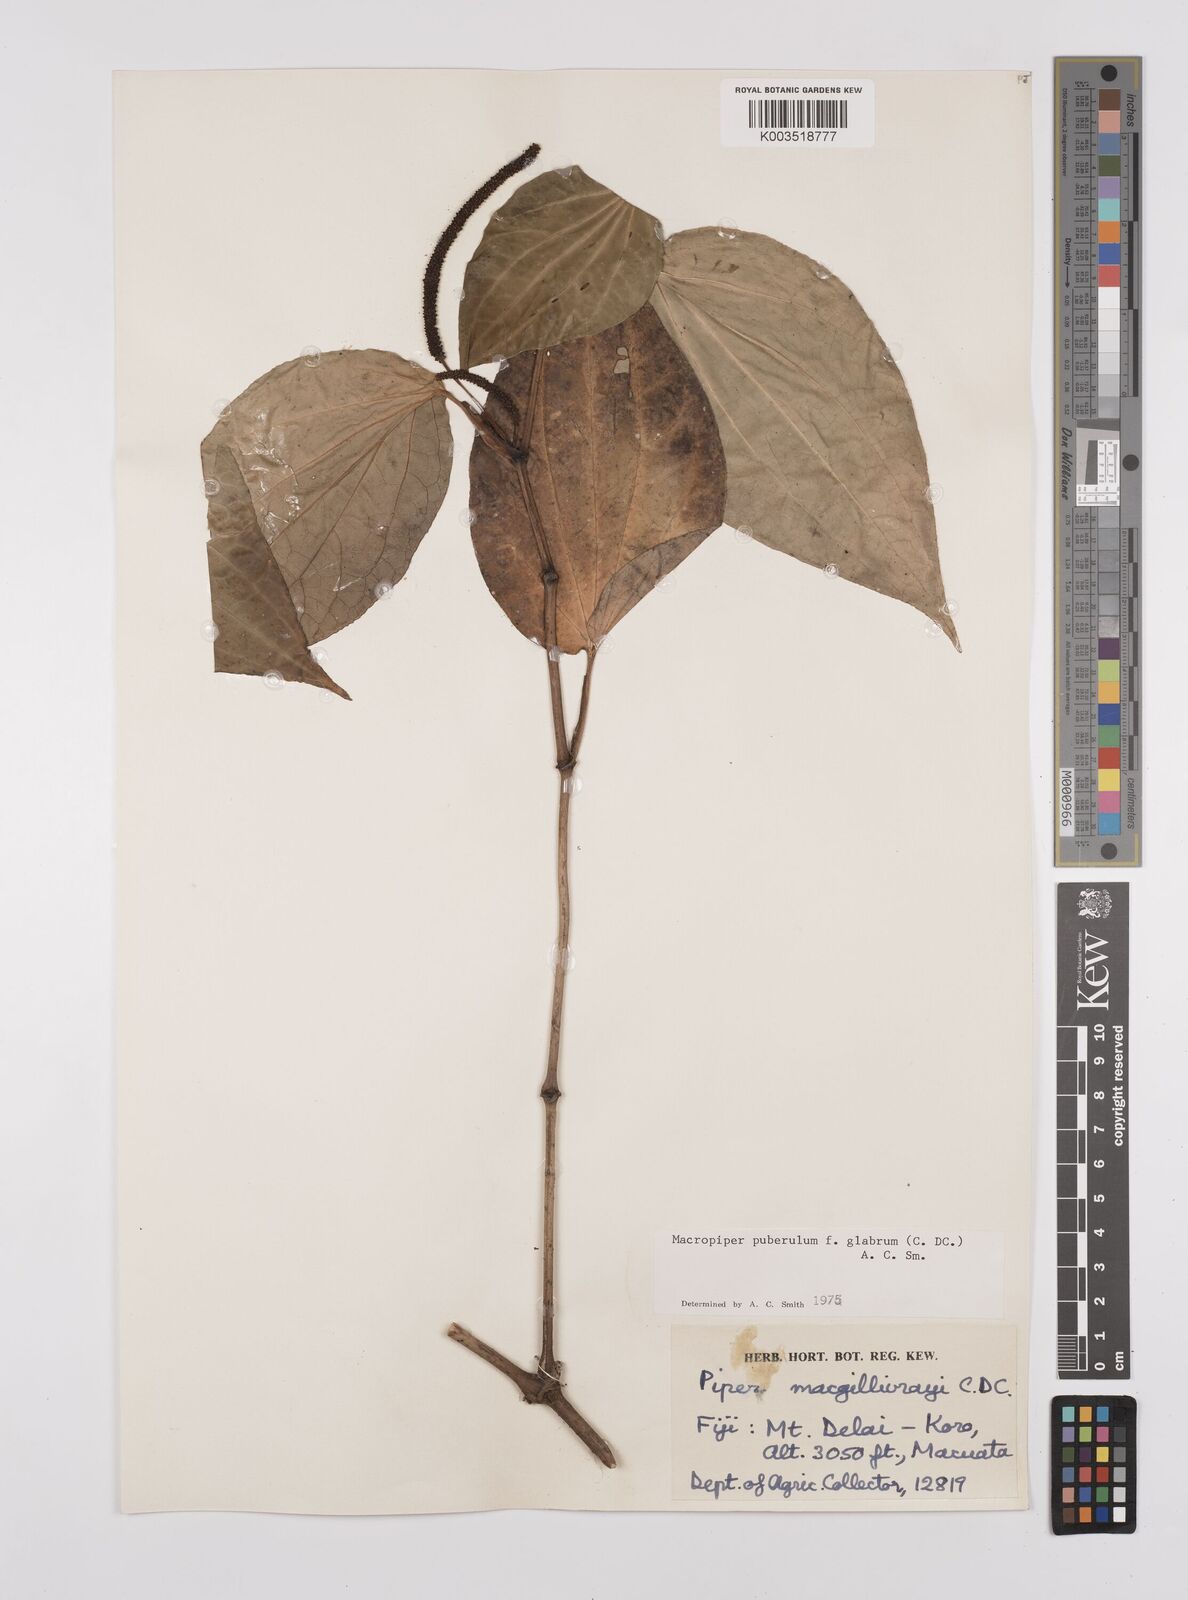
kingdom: Plantae
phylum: Tracheophyta
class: Magnoliopsida
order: Piperales
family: Piperaceae
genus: Macropiper
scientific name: Macropiper puberulum
